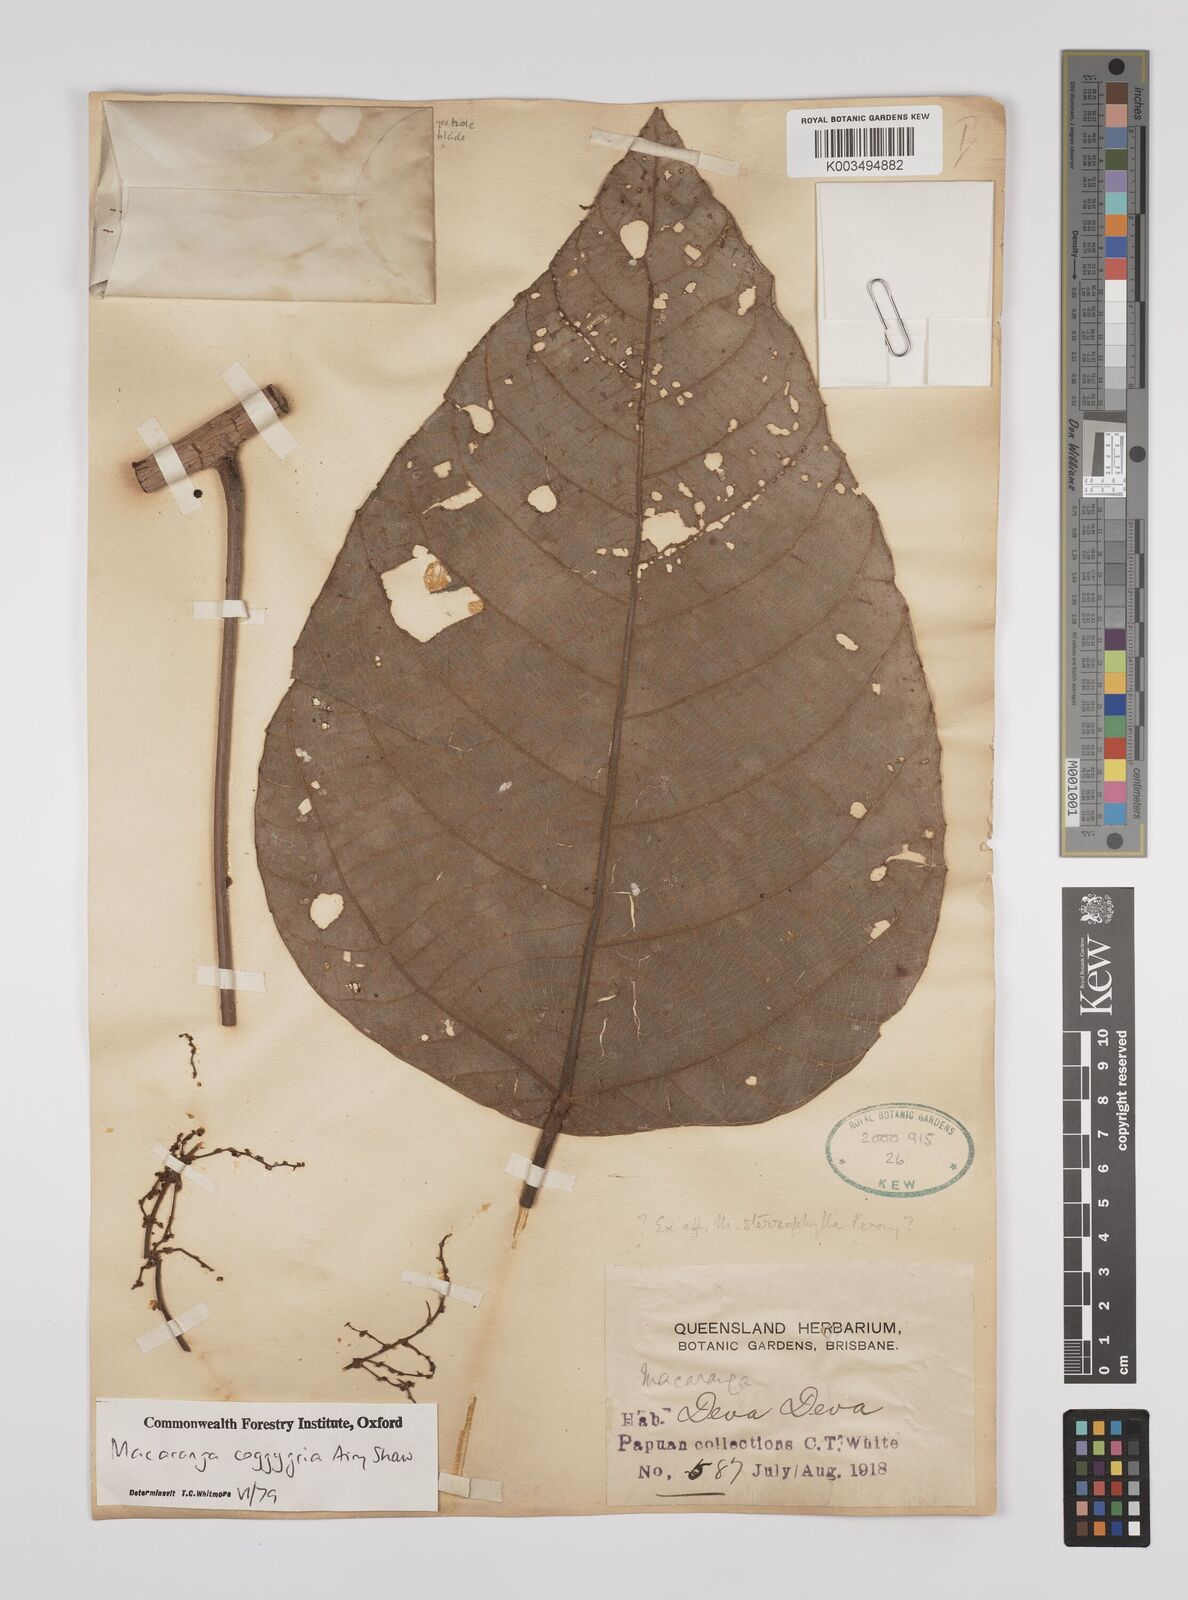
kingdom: Plantae
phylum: Tracheophyta
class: Magnoliopsida
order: Malpighiales
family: Euphorbiaceae
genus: Macaranga
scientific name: Macaranga coggygria
